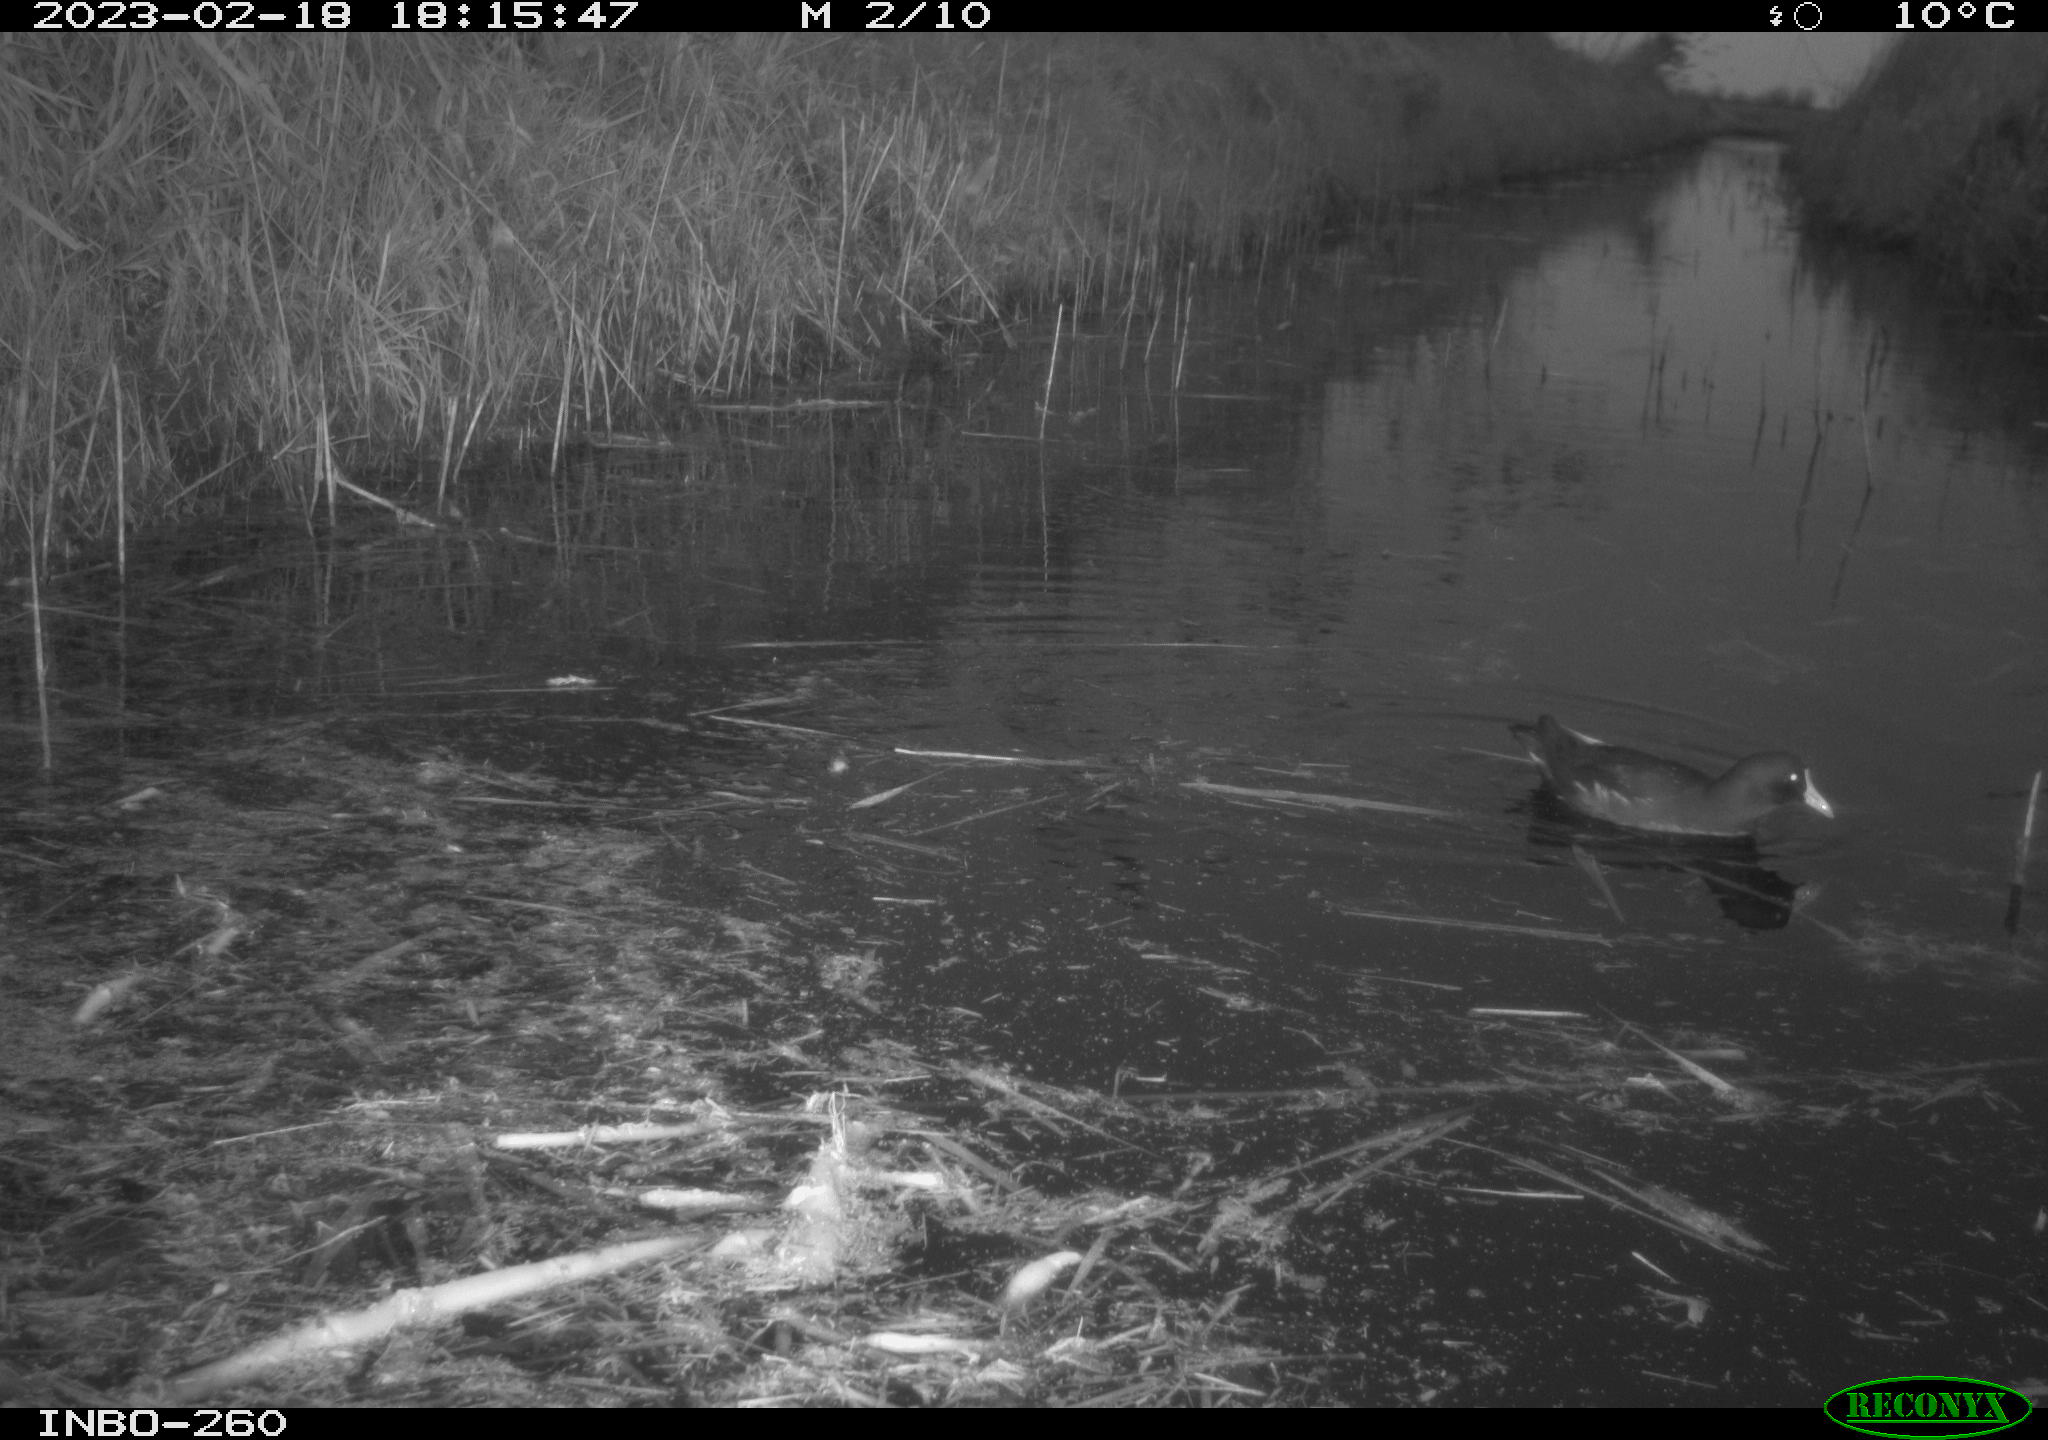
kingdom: Animalia
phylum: Chordata
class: Aves
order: Gruiformes
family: Rallidae
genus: Gallinula
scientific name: Gallinula chloropus
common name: Common moorhen
